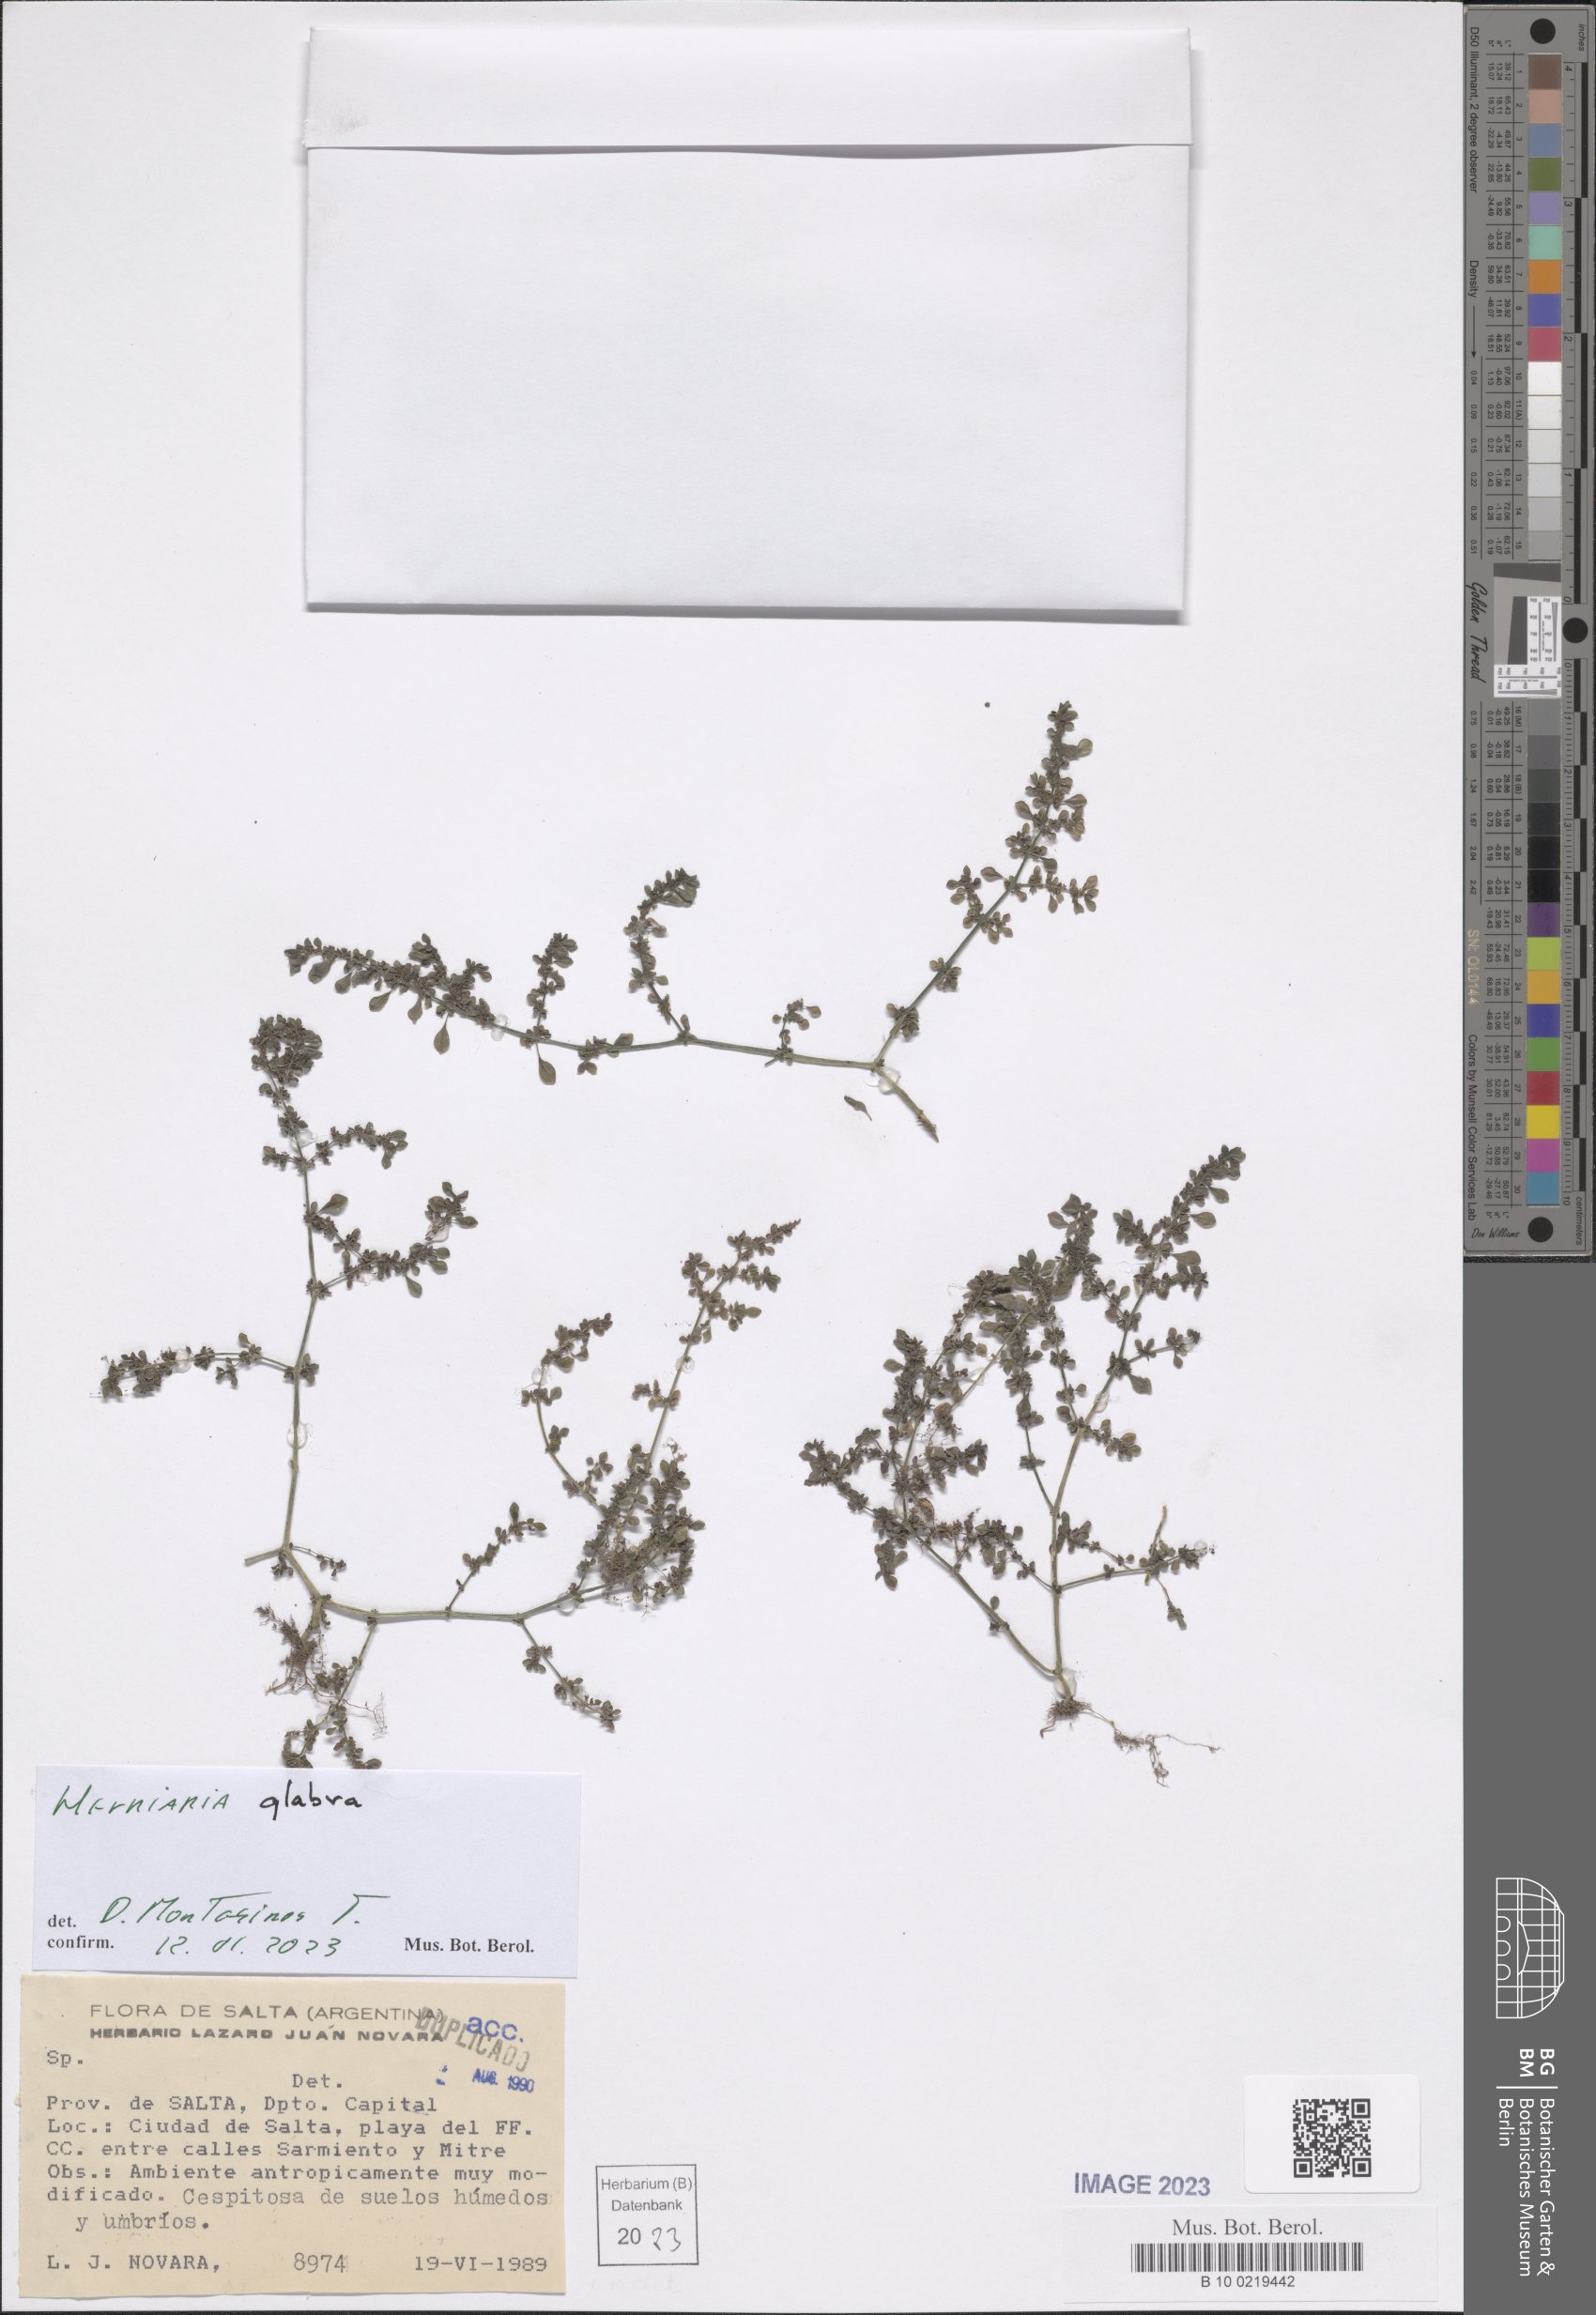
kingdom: Plantae
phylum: Tracheophyta
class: Magnoliopsida
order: Caryophyllales
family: Caryophyllaceae
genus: Herniaria
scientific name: Herniaria glabra
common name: Smooth rupturewort
